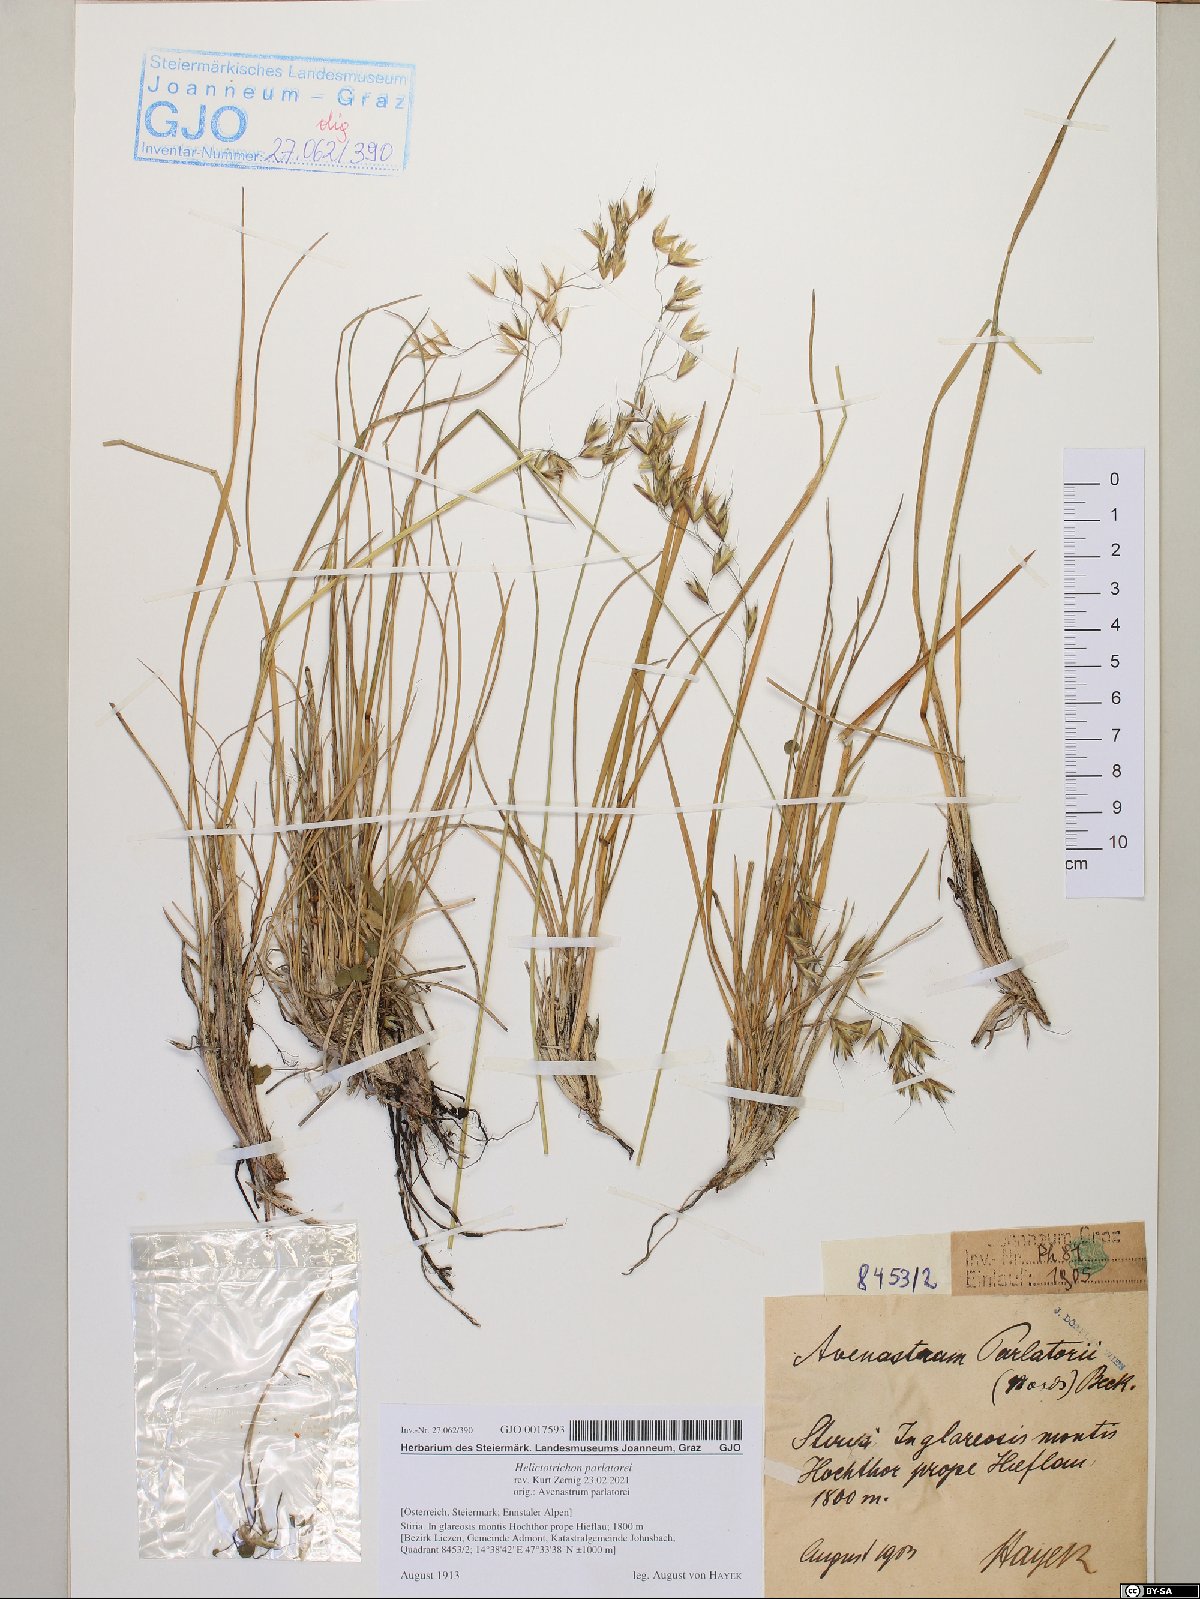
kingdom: Plantae
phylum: Tracheophyta
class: Liliopsida
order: Poales
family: Poaceae
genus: Helictotrichon
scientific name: Helictotrichon parlatorei
